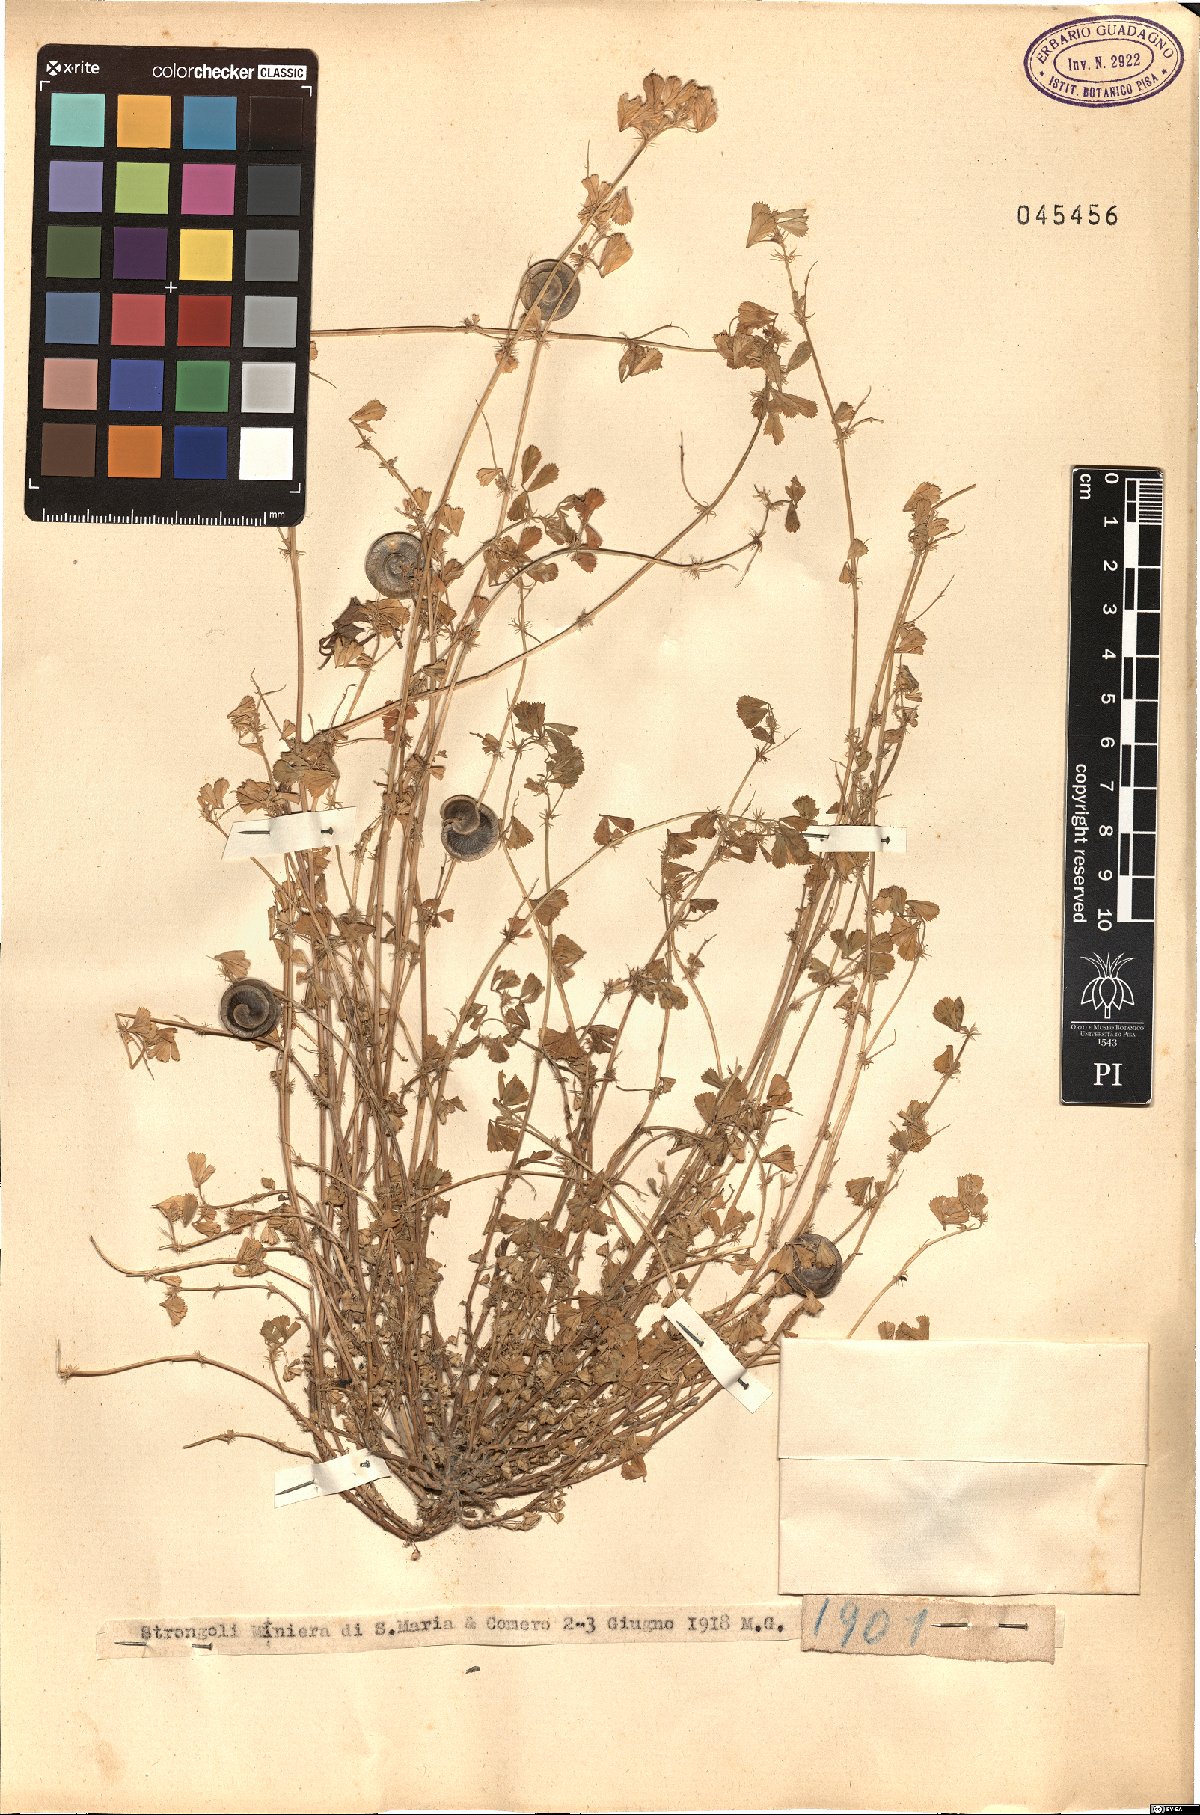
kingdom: Plantae
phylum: Tracheophyta
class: Magnoliopsida
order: Fabales
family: Fabaceae
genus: Medicago
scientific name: Medicago
